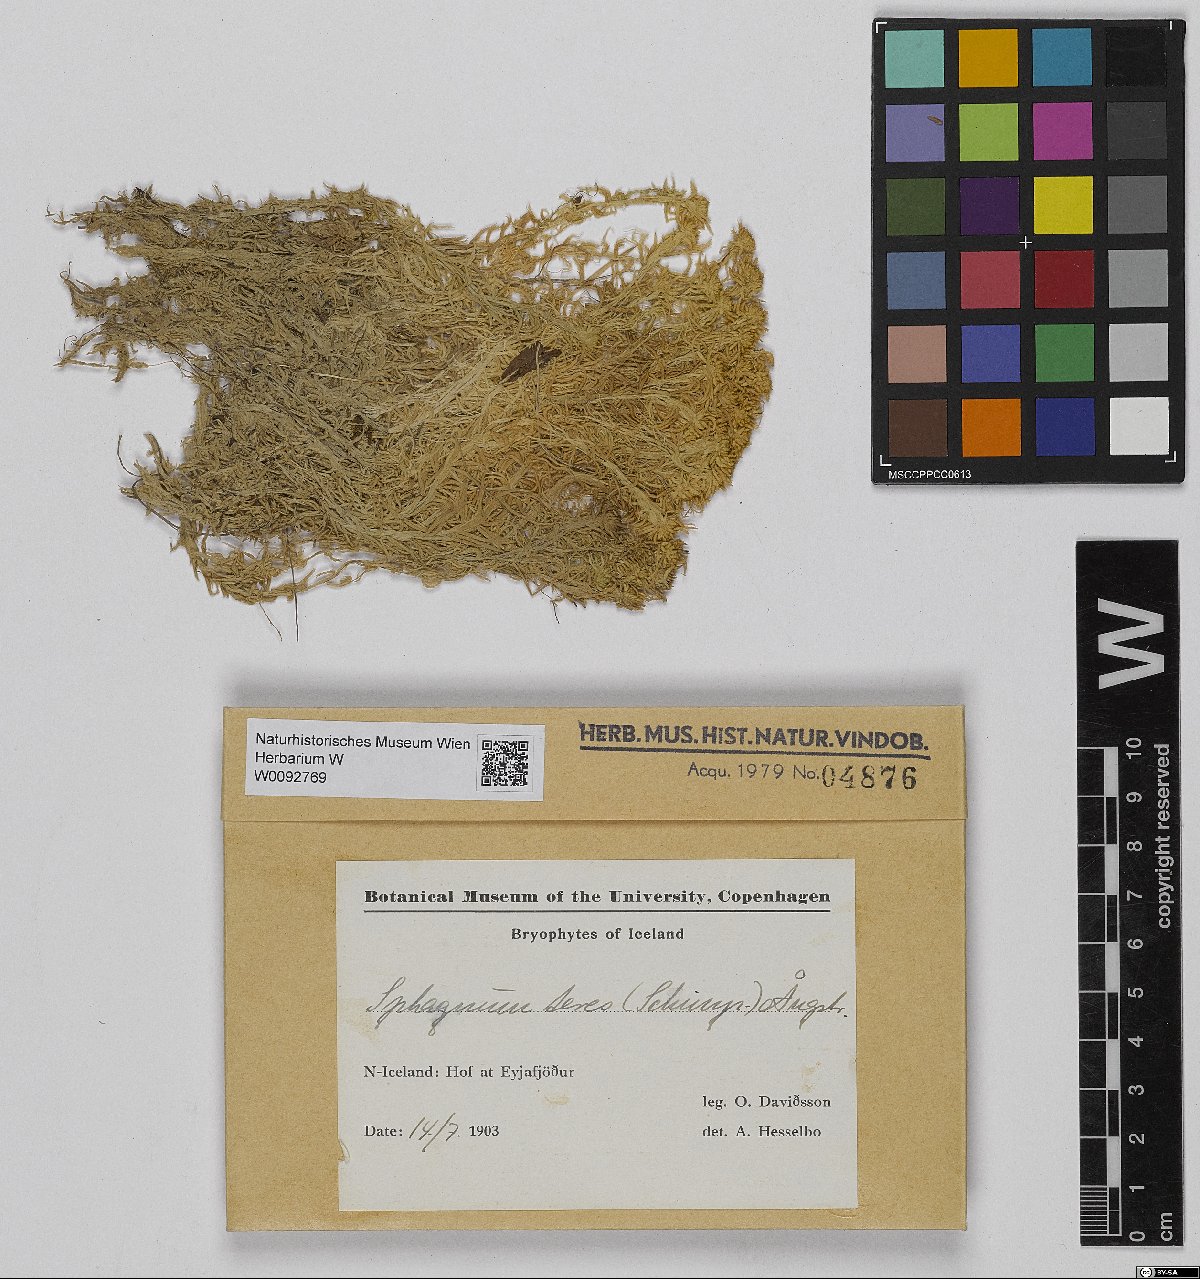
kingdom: Plantae
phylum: Bryophyta
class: Sphagnopsida
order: Sphagnales
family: Sphagnaceae
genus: Sphagnum
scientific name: Sphagnum teres
